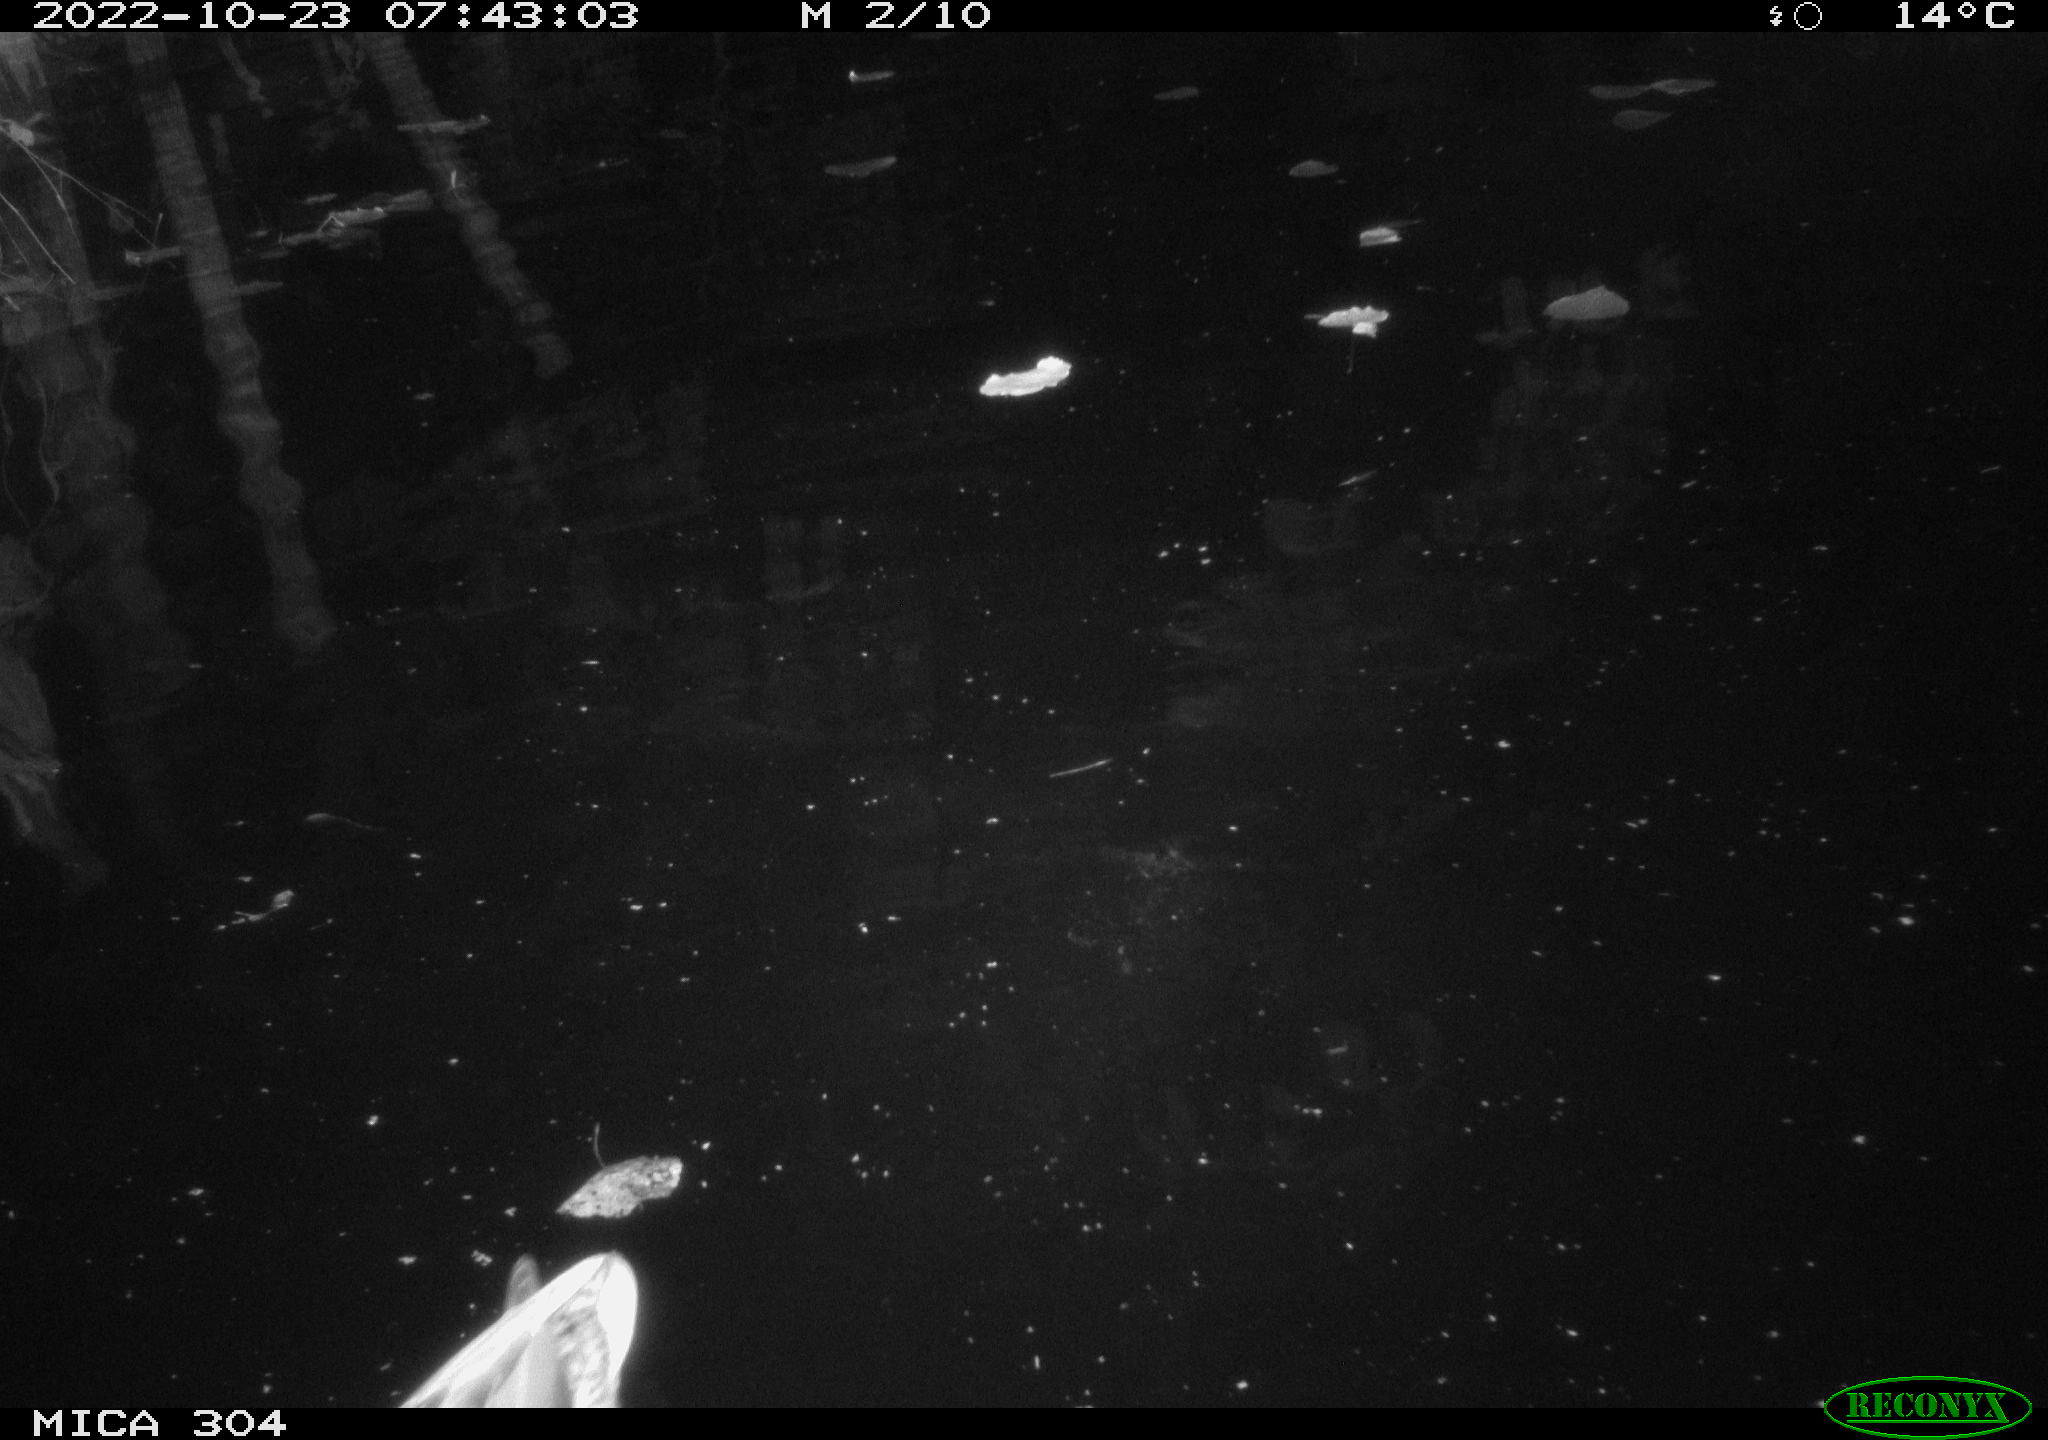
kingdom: Animalia
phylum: Chordata
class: Aves
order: Anseriformes
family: Anatidae
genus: Anas
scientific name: Anas
